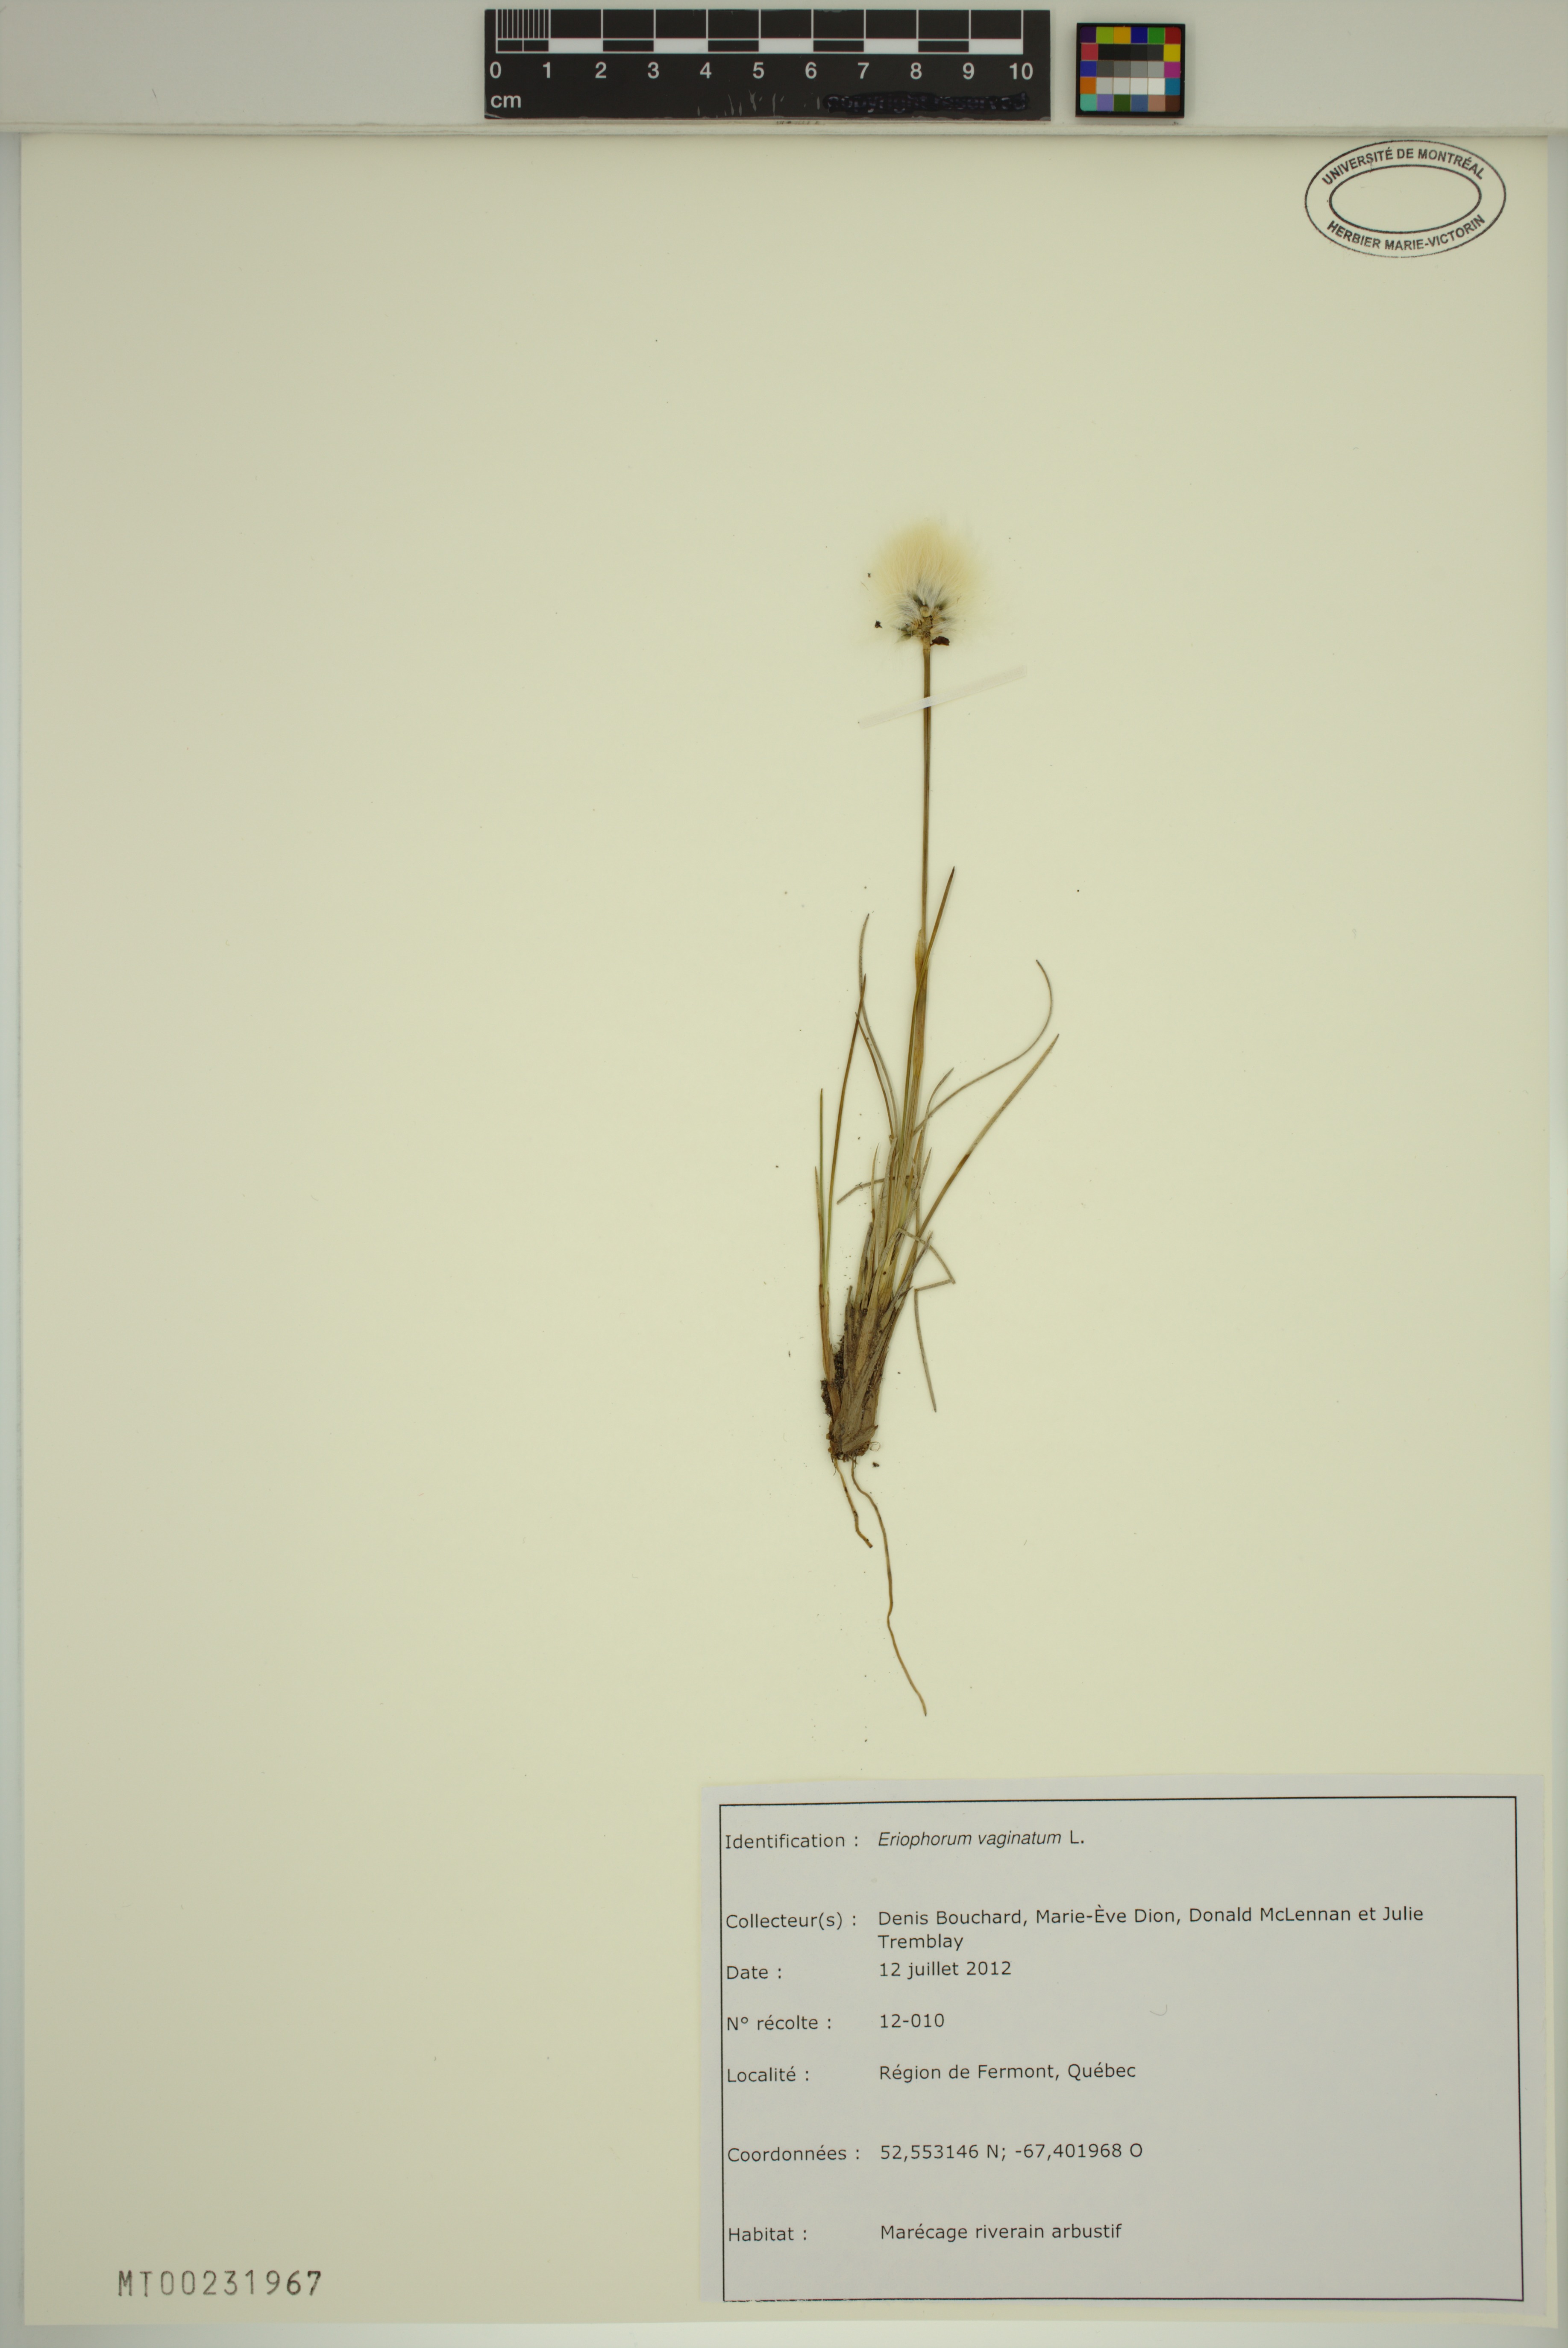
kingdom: Plantae
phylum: Tracheophyta
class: Liliopsida
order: Poales
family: Cyperaceae
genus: Eriophorum
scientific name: Eriophorum vaginatum
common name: Hare's-tail cottongrass
